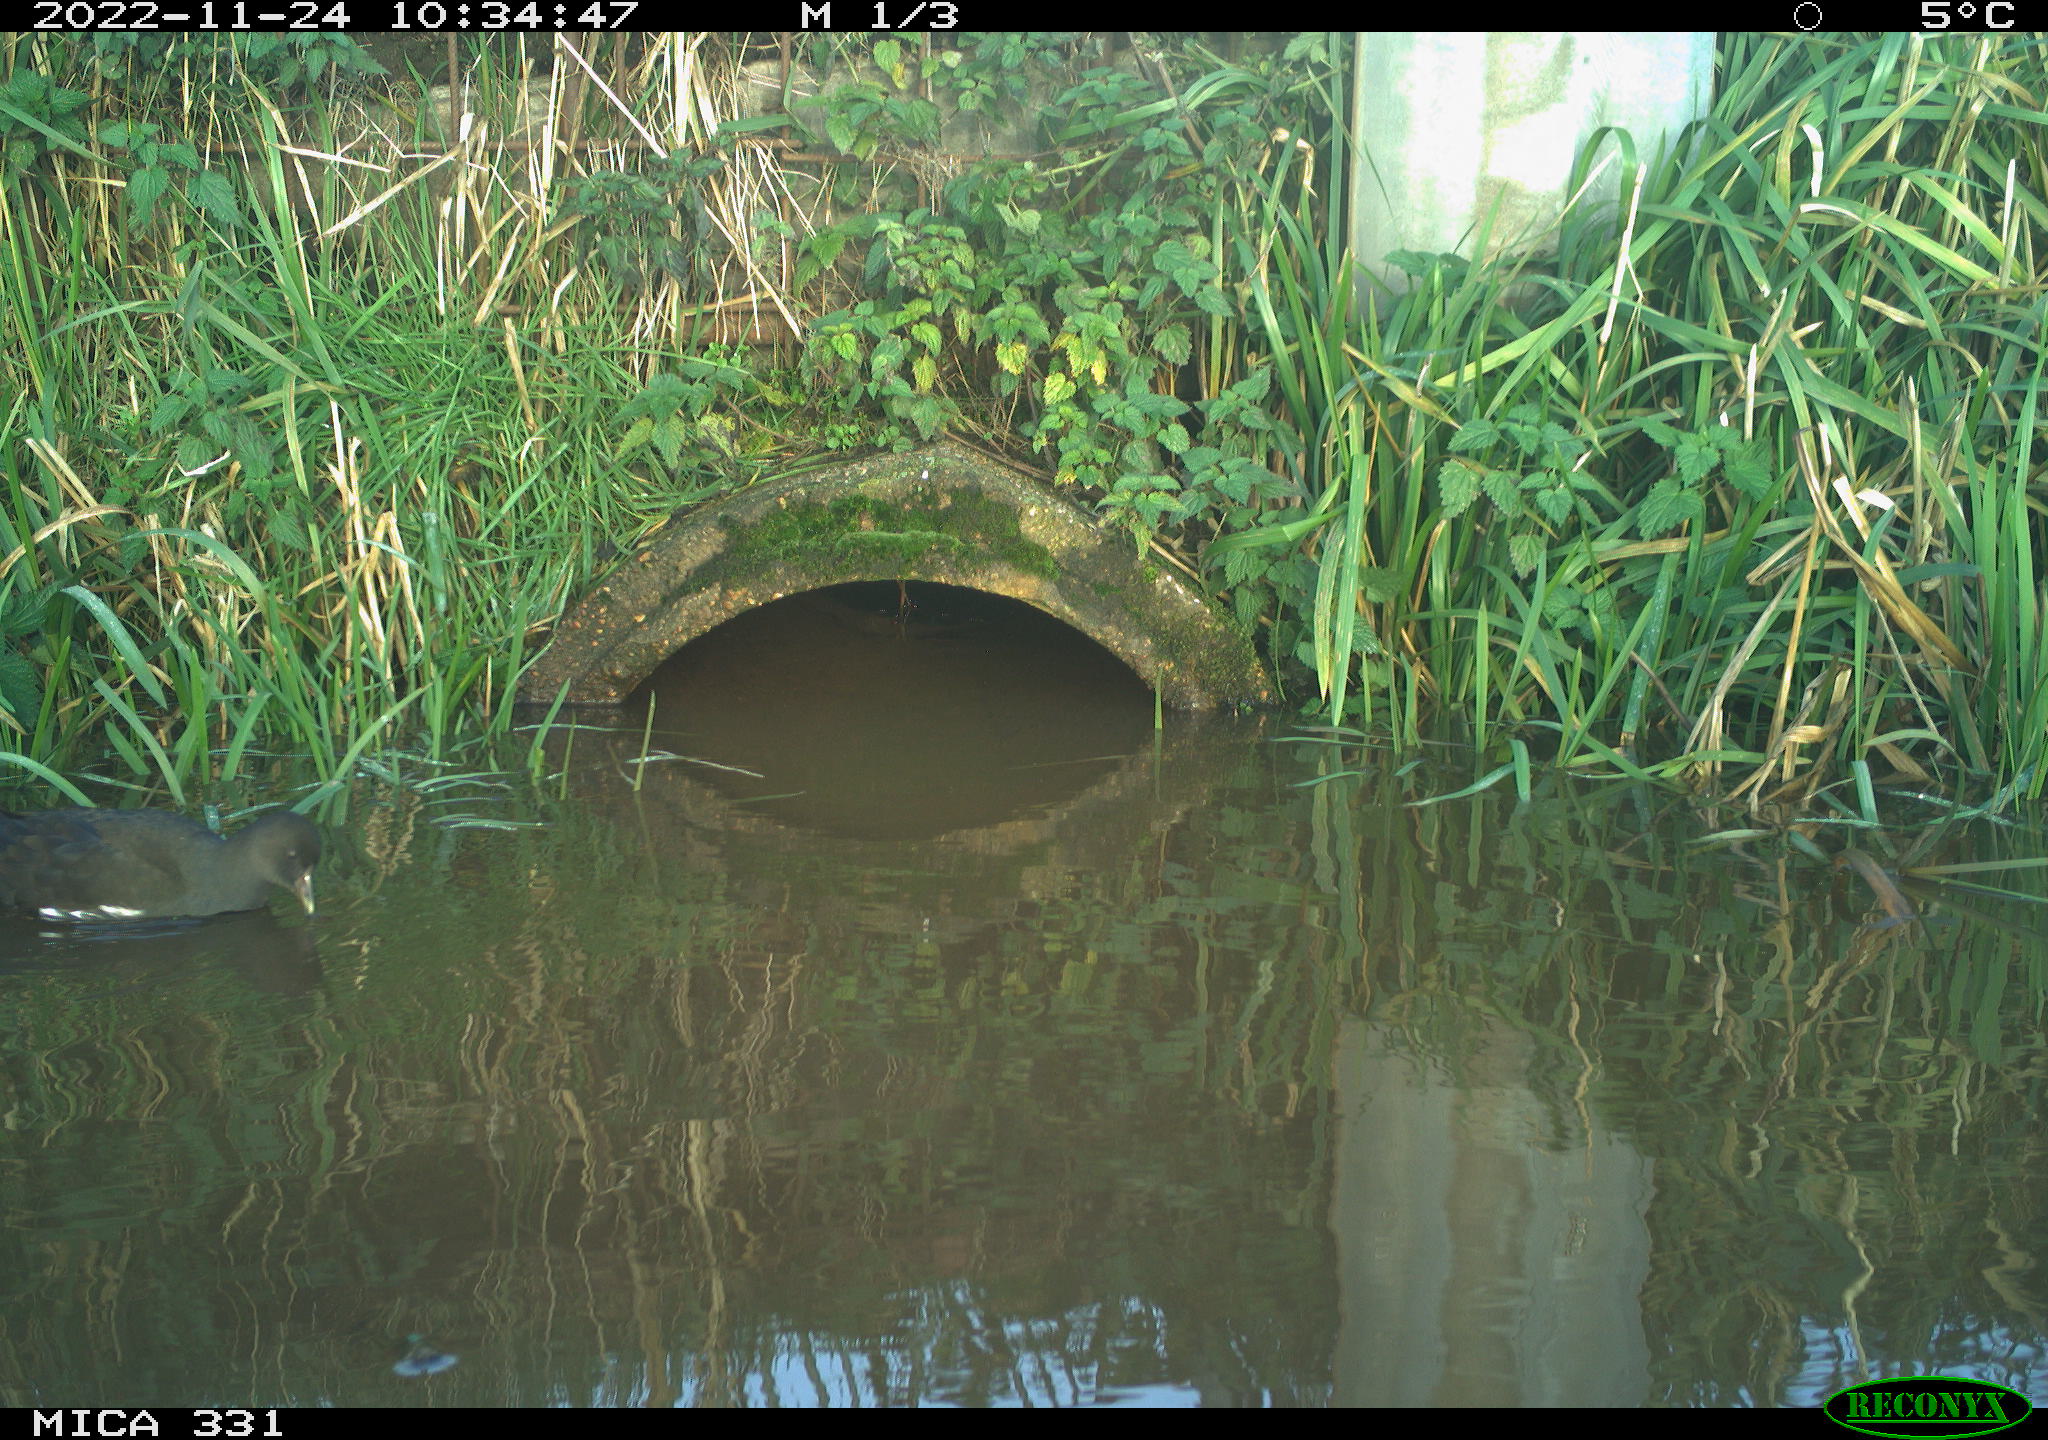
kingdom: Animalia
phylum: Chordata
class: Aves
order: Gruiformes
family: Rallidae
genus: Gallinula
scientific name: Gallinula chloropus
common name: Common moorhen
